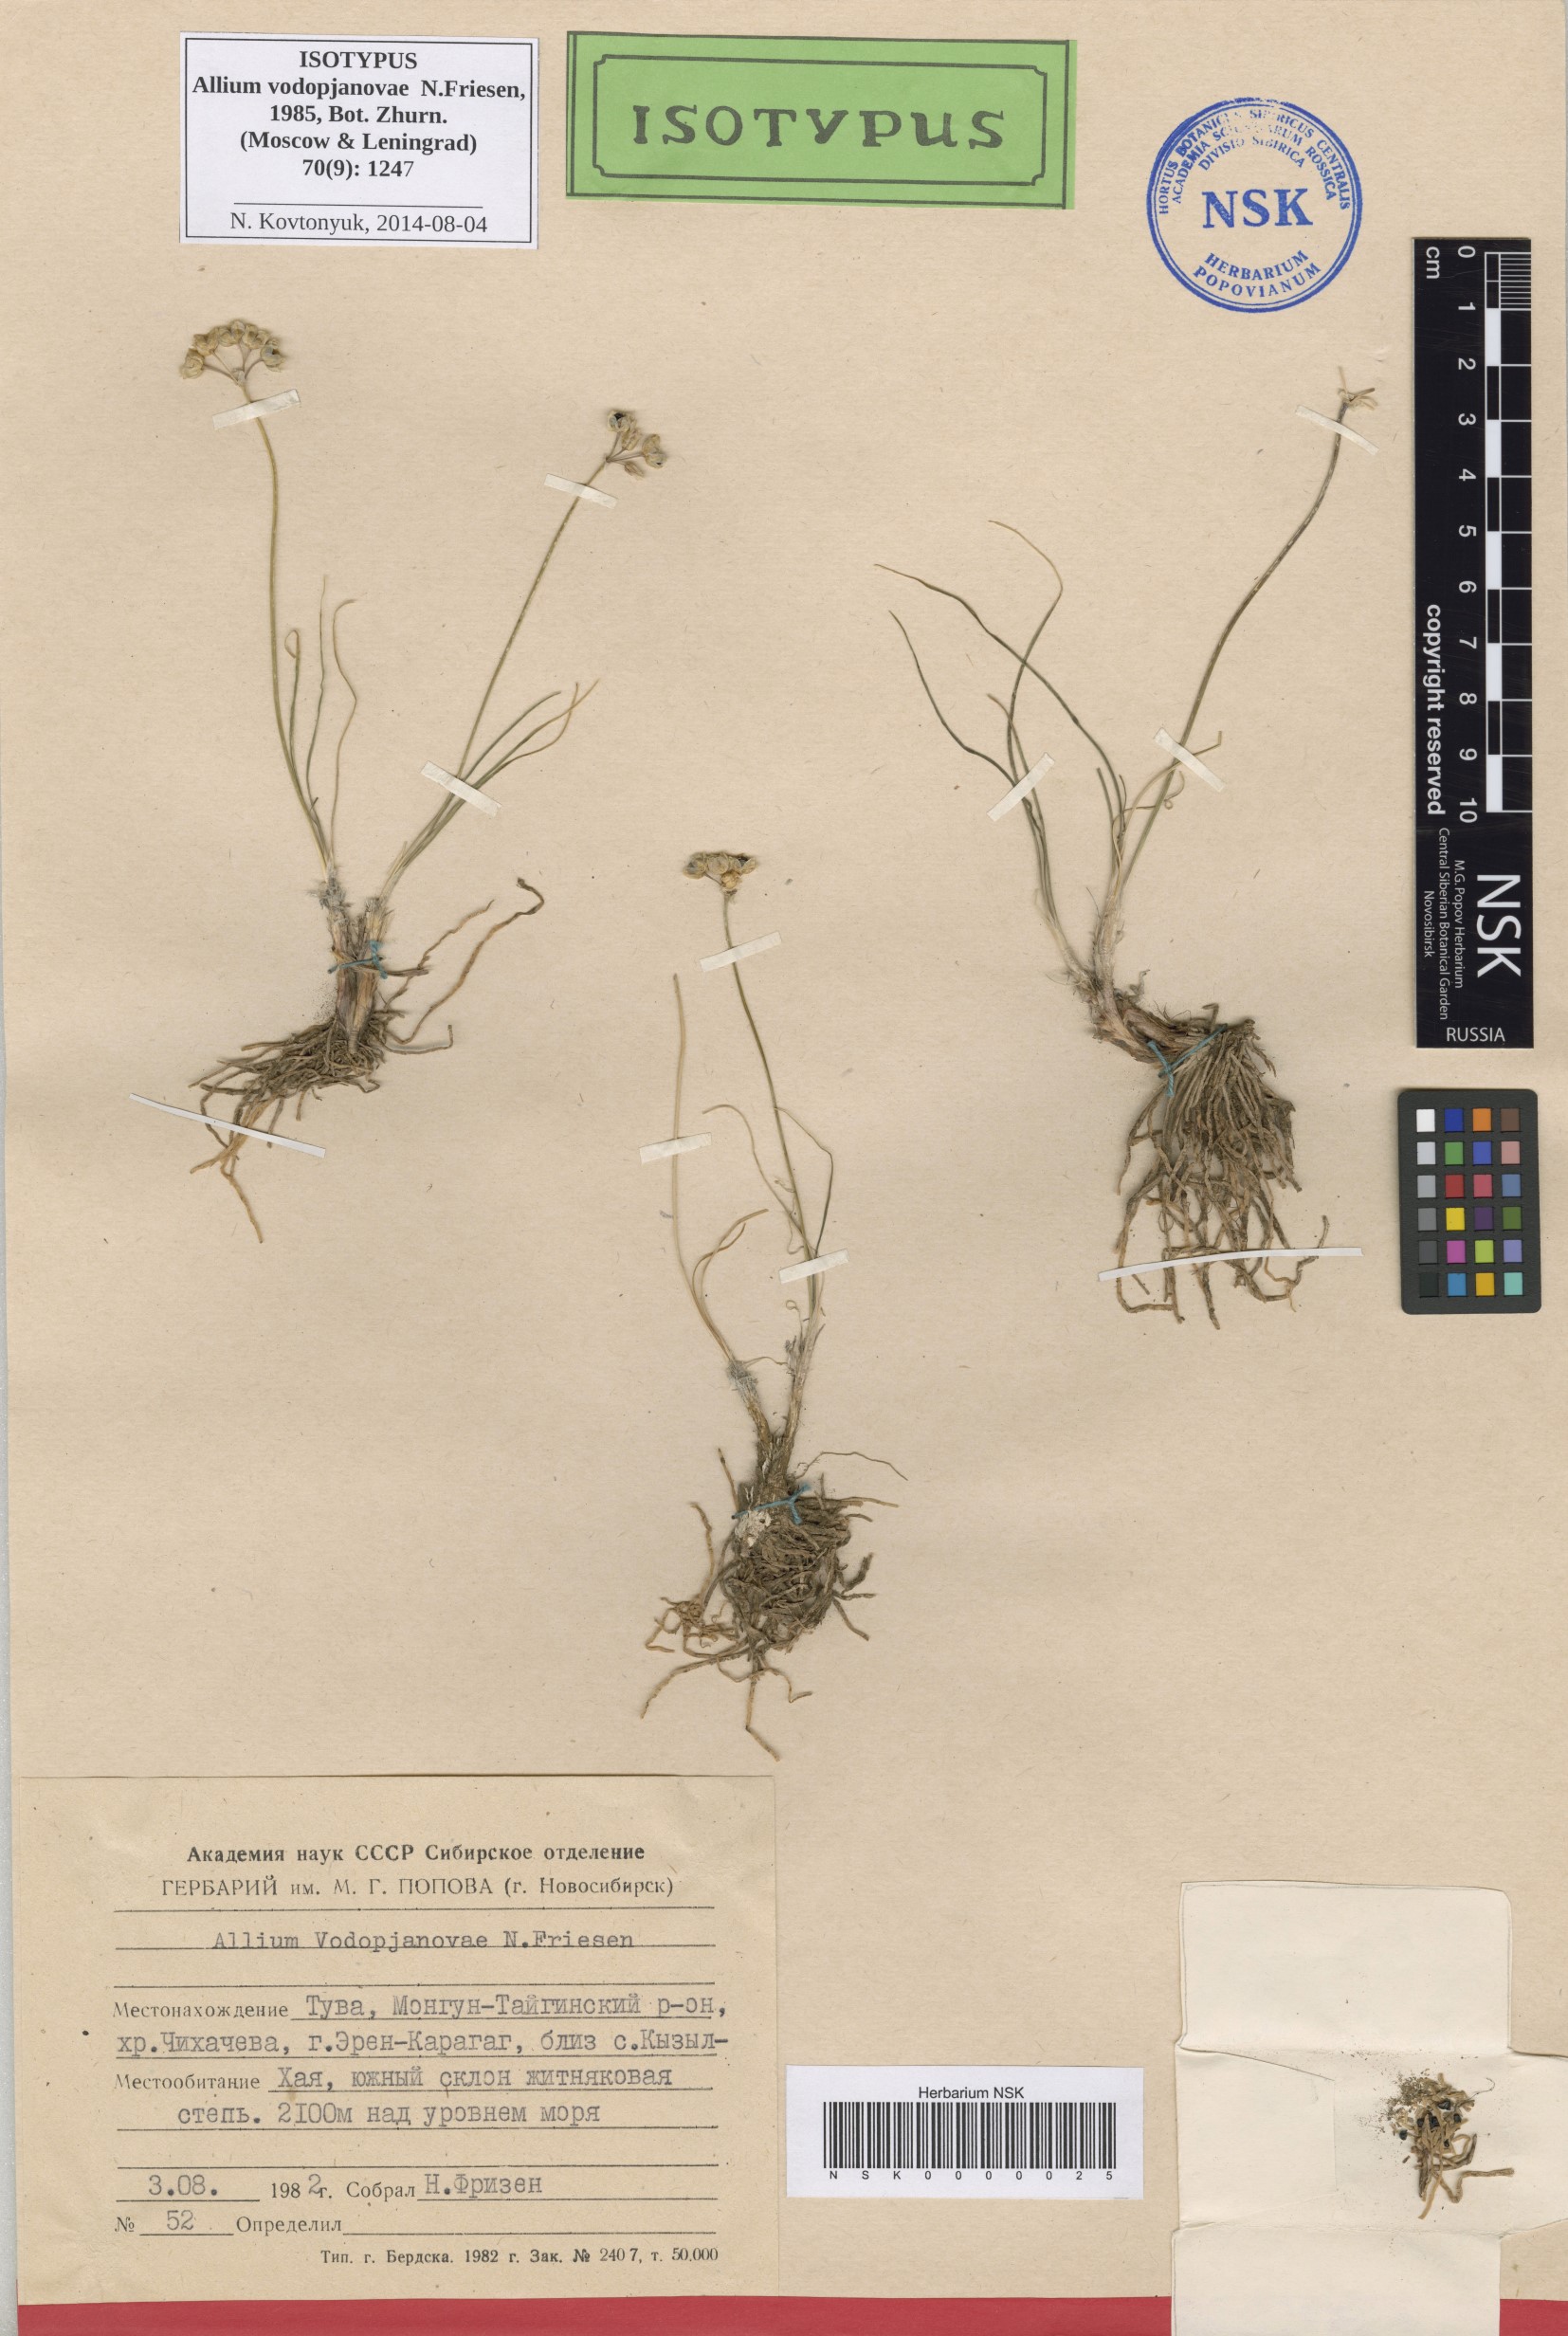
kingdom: Plantae
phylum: Tracheophyta
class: Liliopsida
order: Asparagales
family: Amaryllidaceae
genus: Allium
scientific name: Allium vodopjanovae
